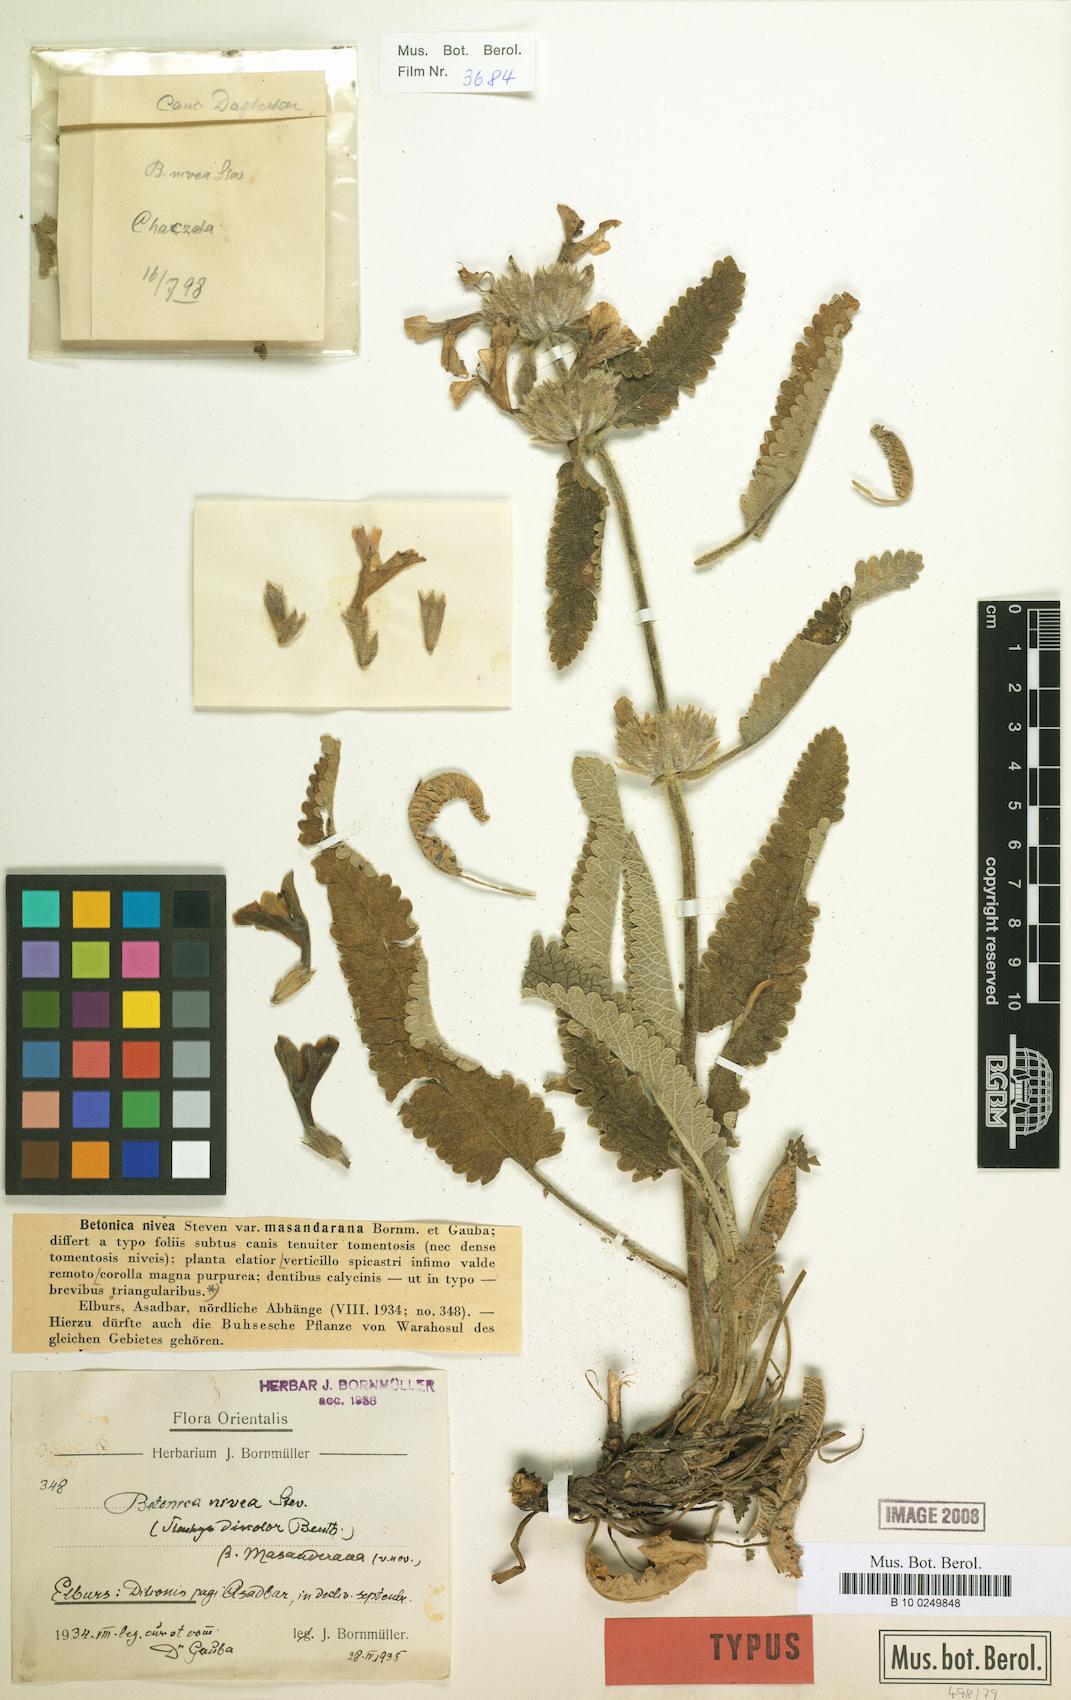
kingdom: Plantae
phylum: Tracheophyta
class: Magnoliopsida
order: Lamiales
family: Lamiaceae
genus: Stachys
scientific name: Stachys alpina
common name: Limestone woundwort
